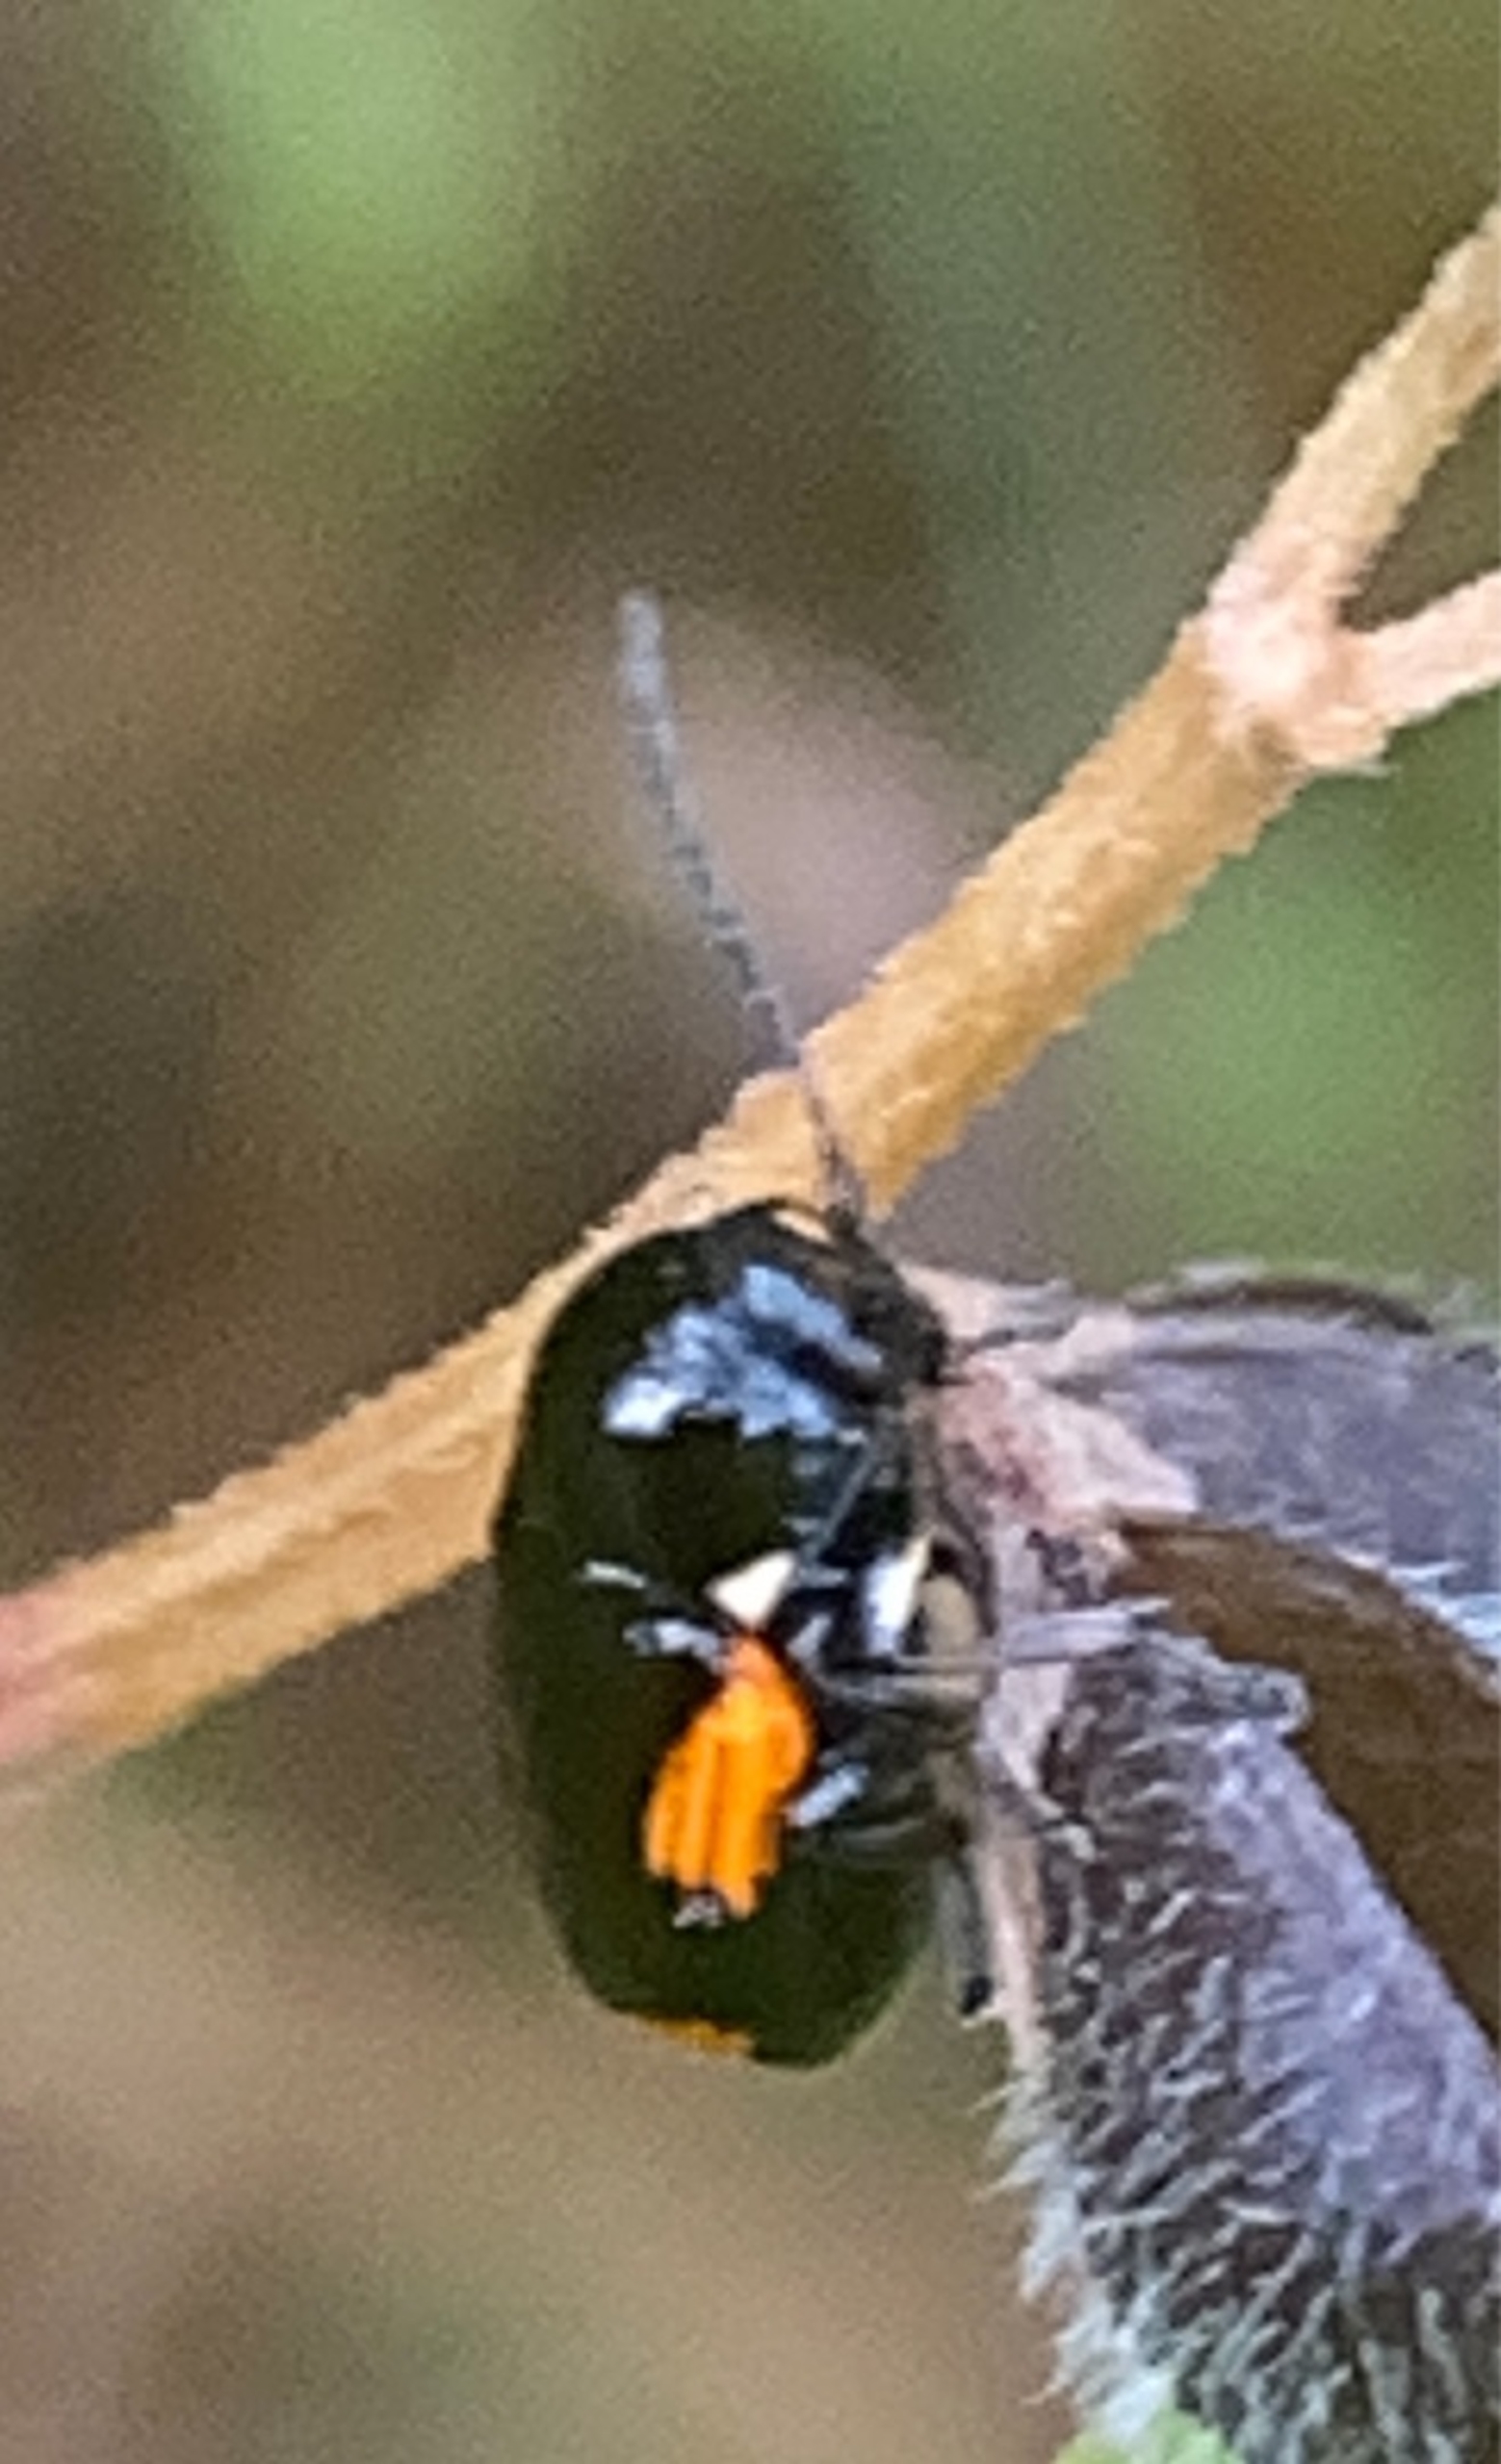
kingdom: Animalia
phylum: Arthropoda
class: Insecta
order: Coleoptera
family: Chrysomelidae
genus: Cryptocephalus
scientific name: Cryptocephalus moraei
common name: Perikonfaldbille
